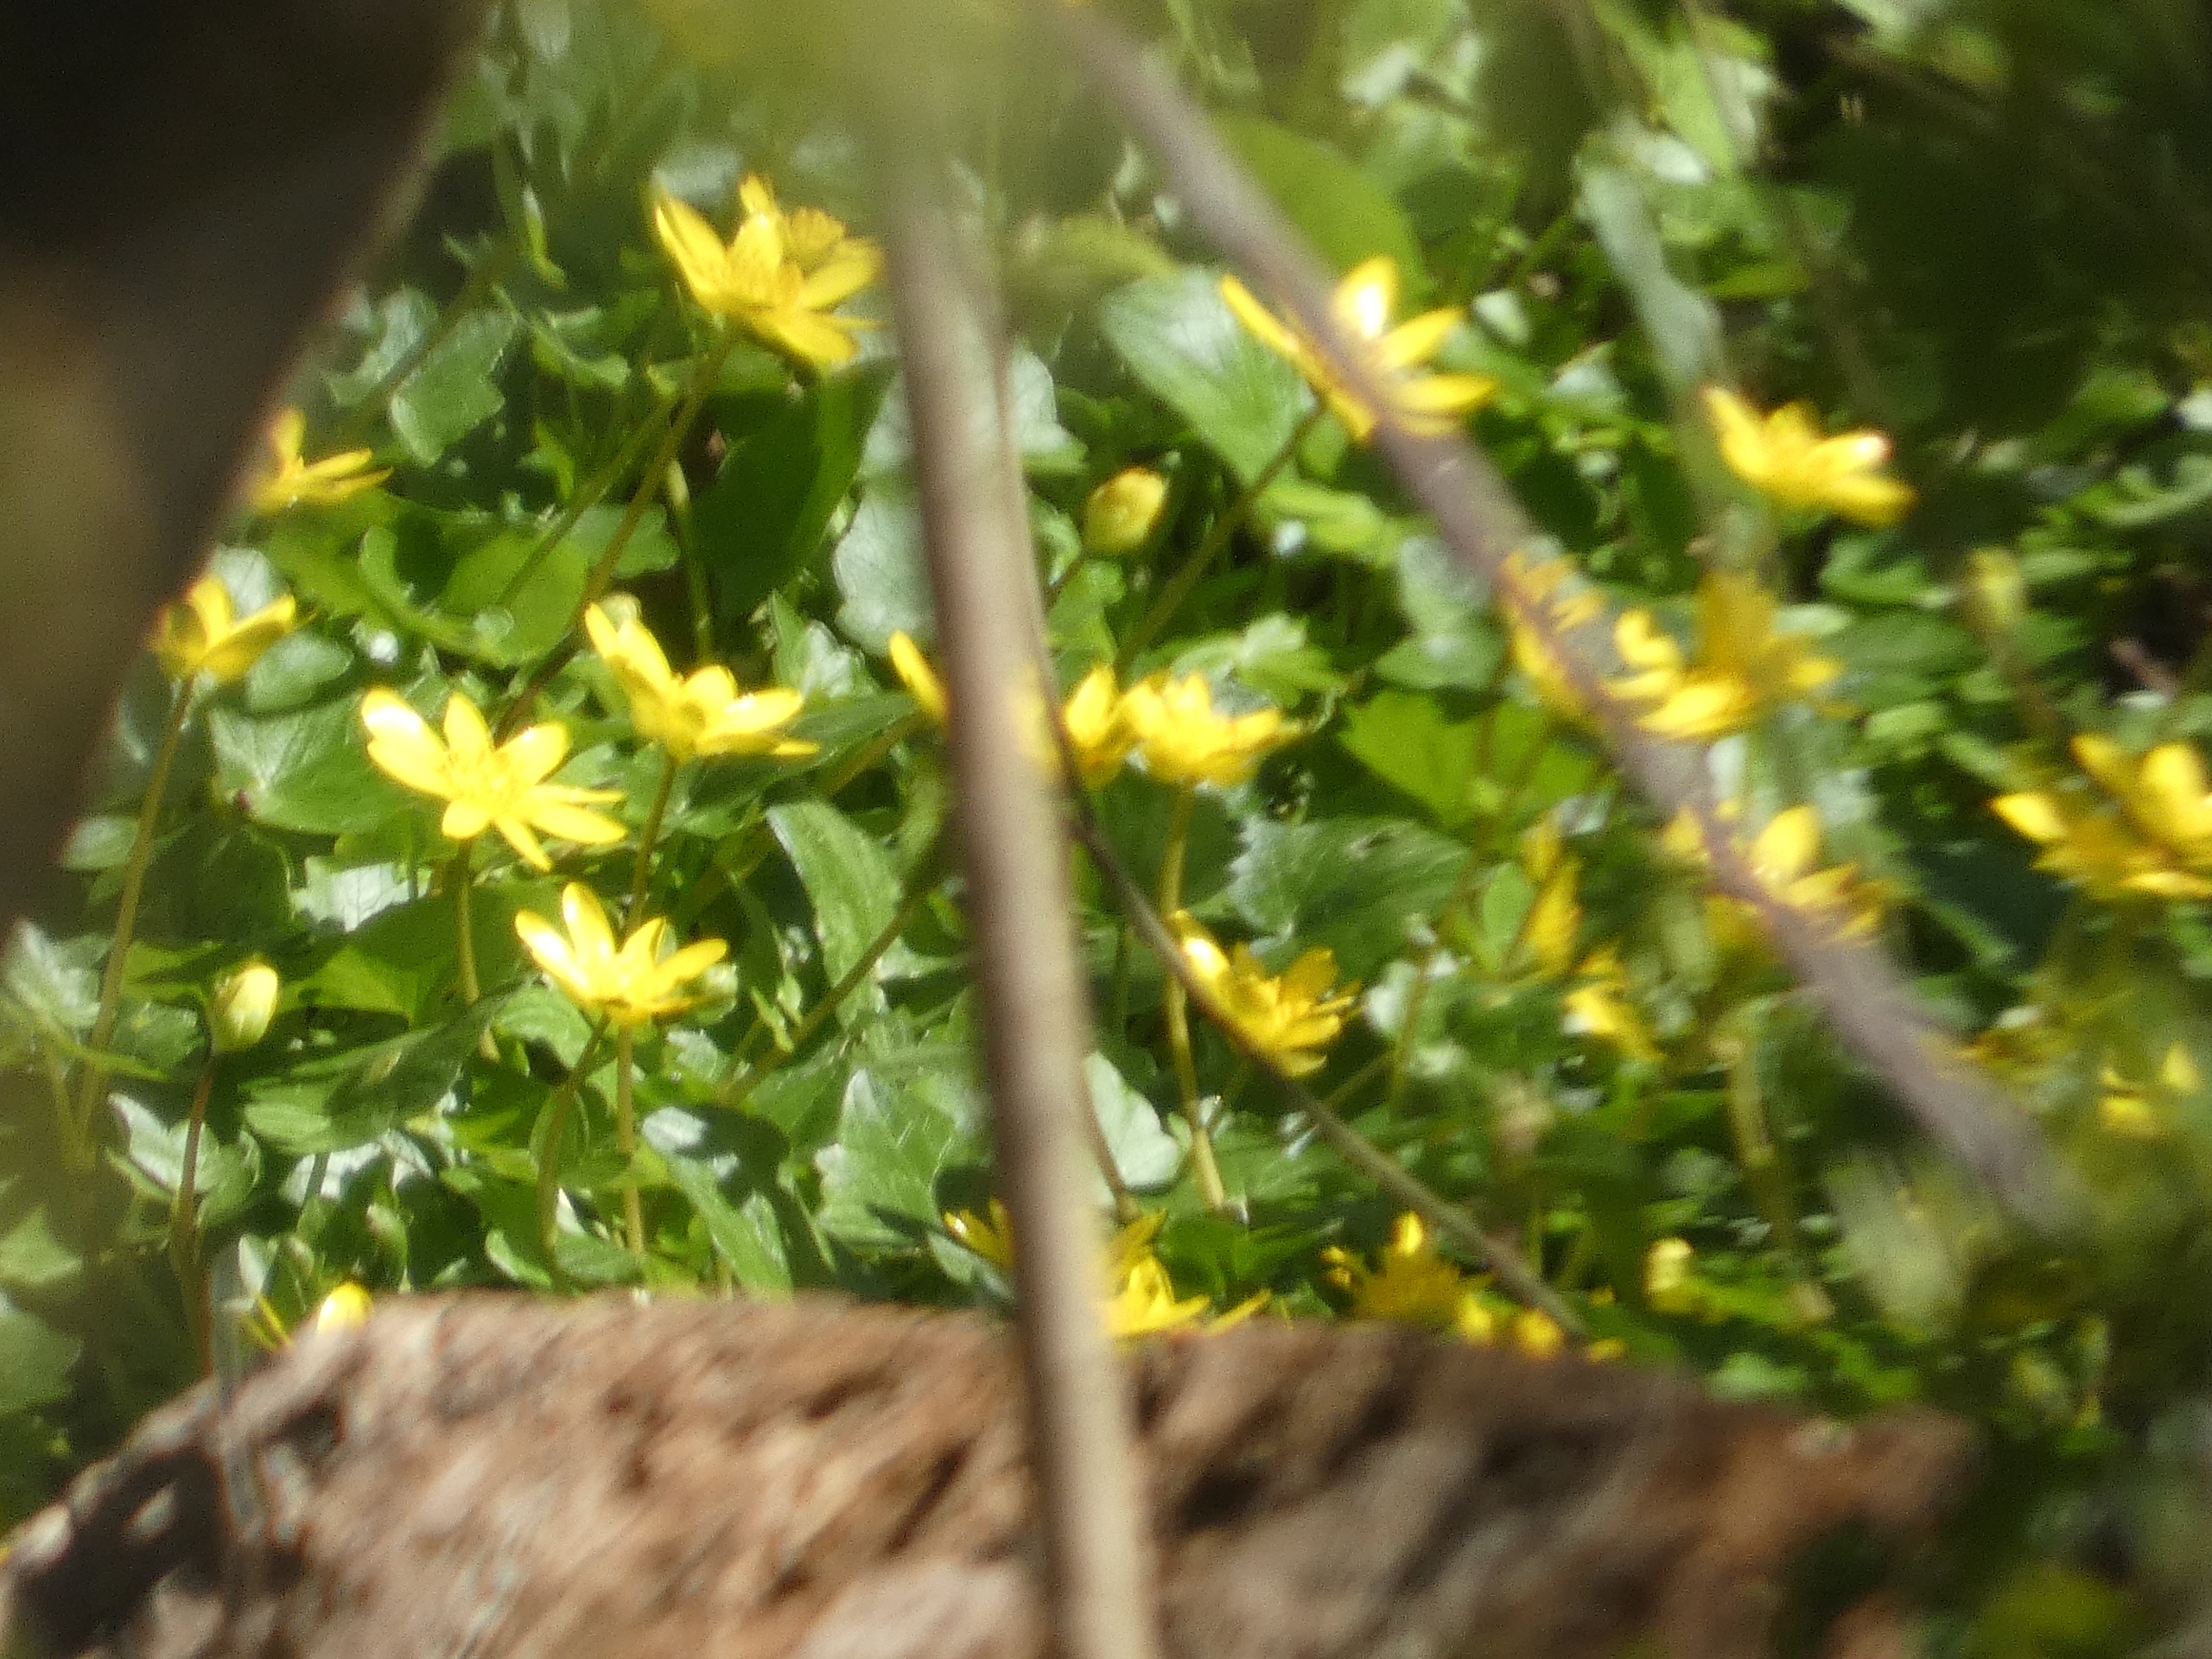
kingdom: Plantae
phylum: Tracheophyta
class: Magnoliopsida
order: Ranunculales
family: Ranunculaceae
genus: Ficaria
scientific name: Ficaria verna
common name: Vorterod
